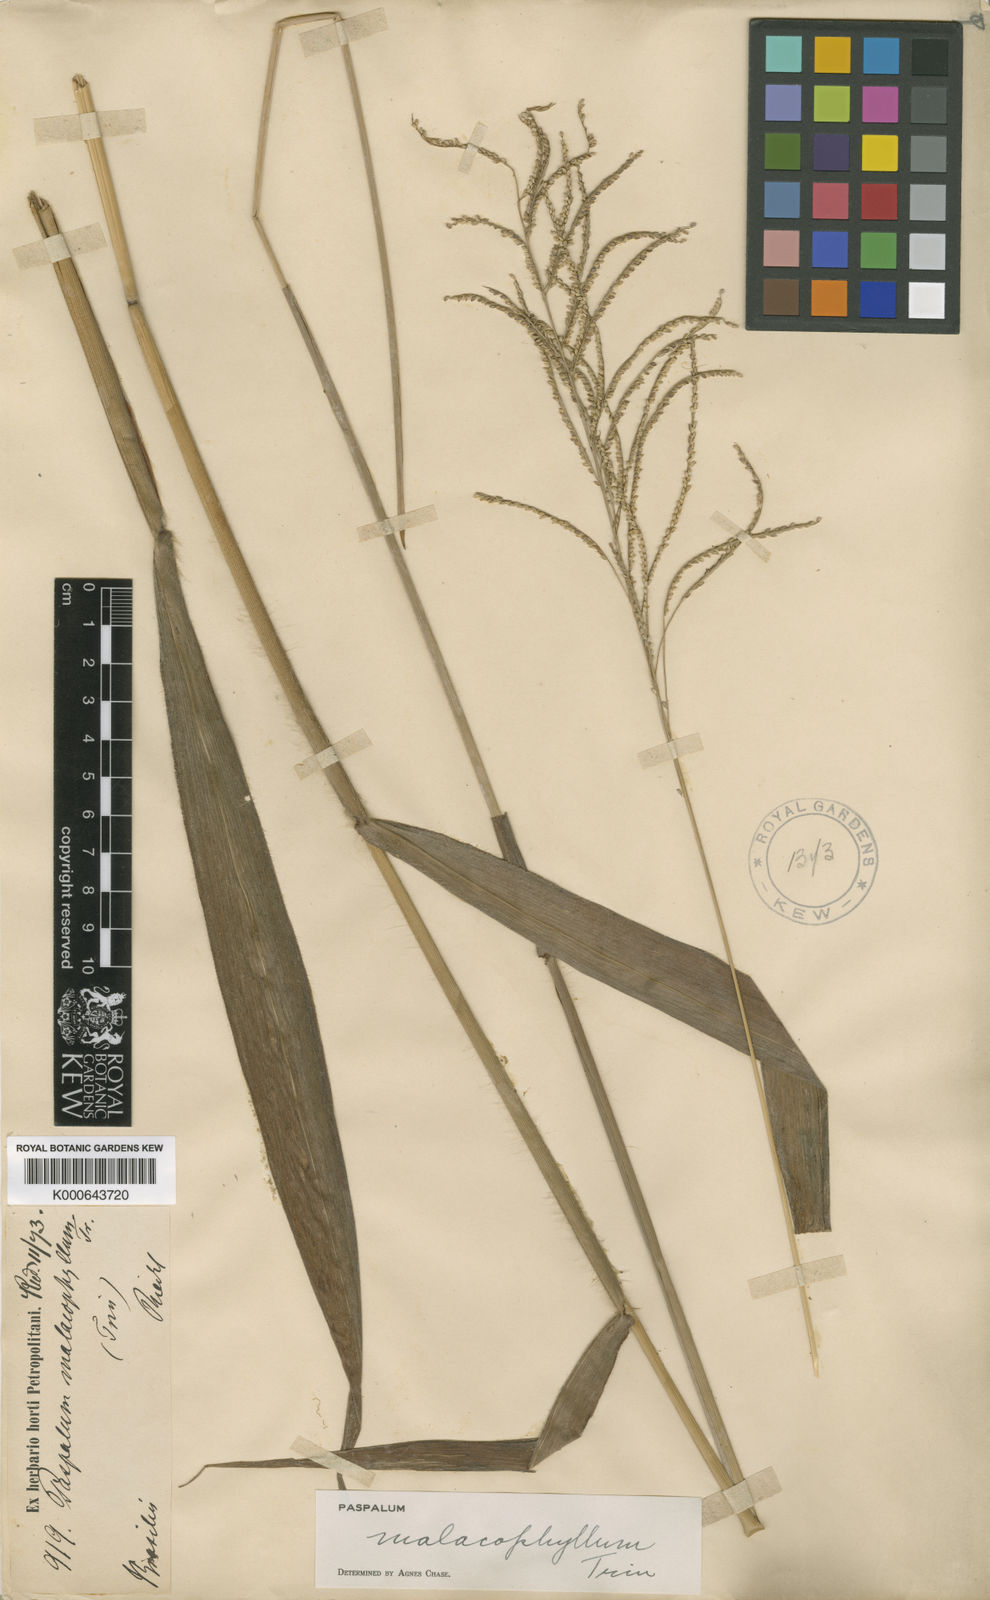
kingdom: Plantae
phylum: Tracheophyta
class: Liliopsida
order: Poales
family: Poaceae
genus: Paspalum
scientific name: Paspalum malacophyllum
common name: Ribbed paspalum
